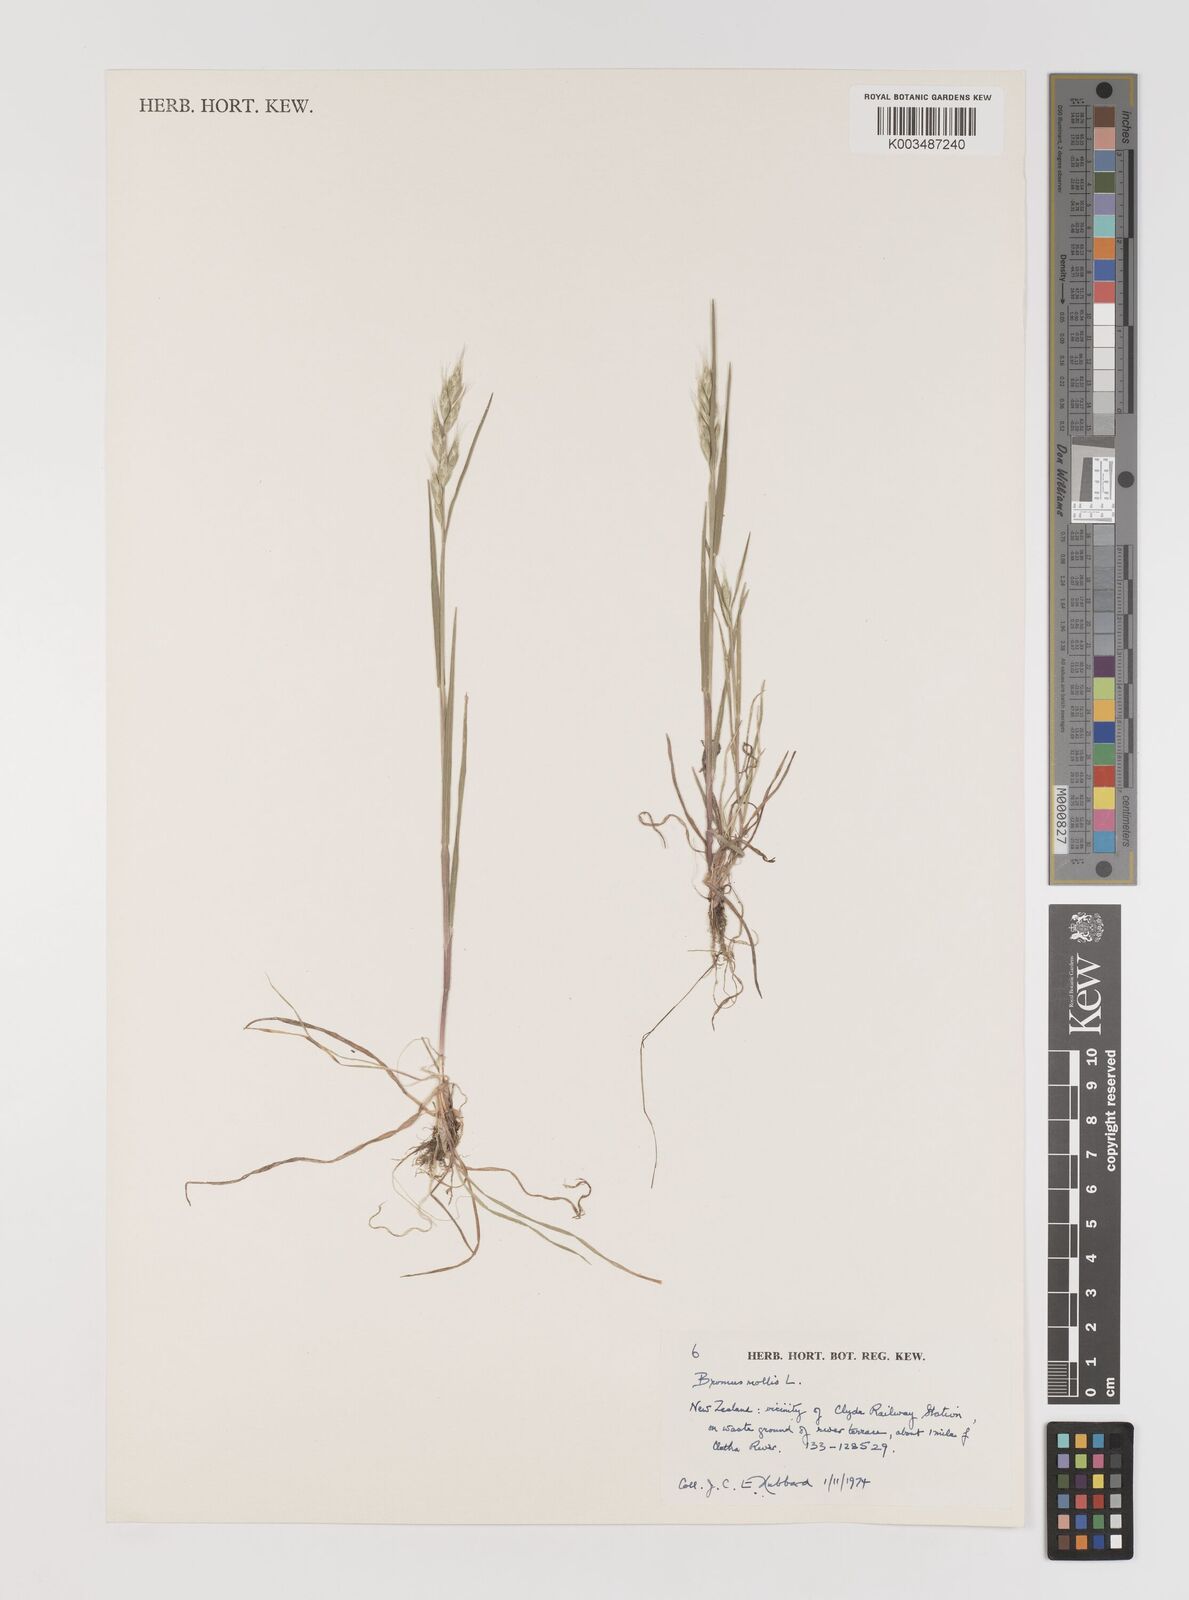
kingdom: Plantae
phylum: Tracheophyta
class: Liliopsida
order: Poales
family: Poaceae
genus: Bromus
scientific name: Bromus hordeaceus
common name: Soft brome
